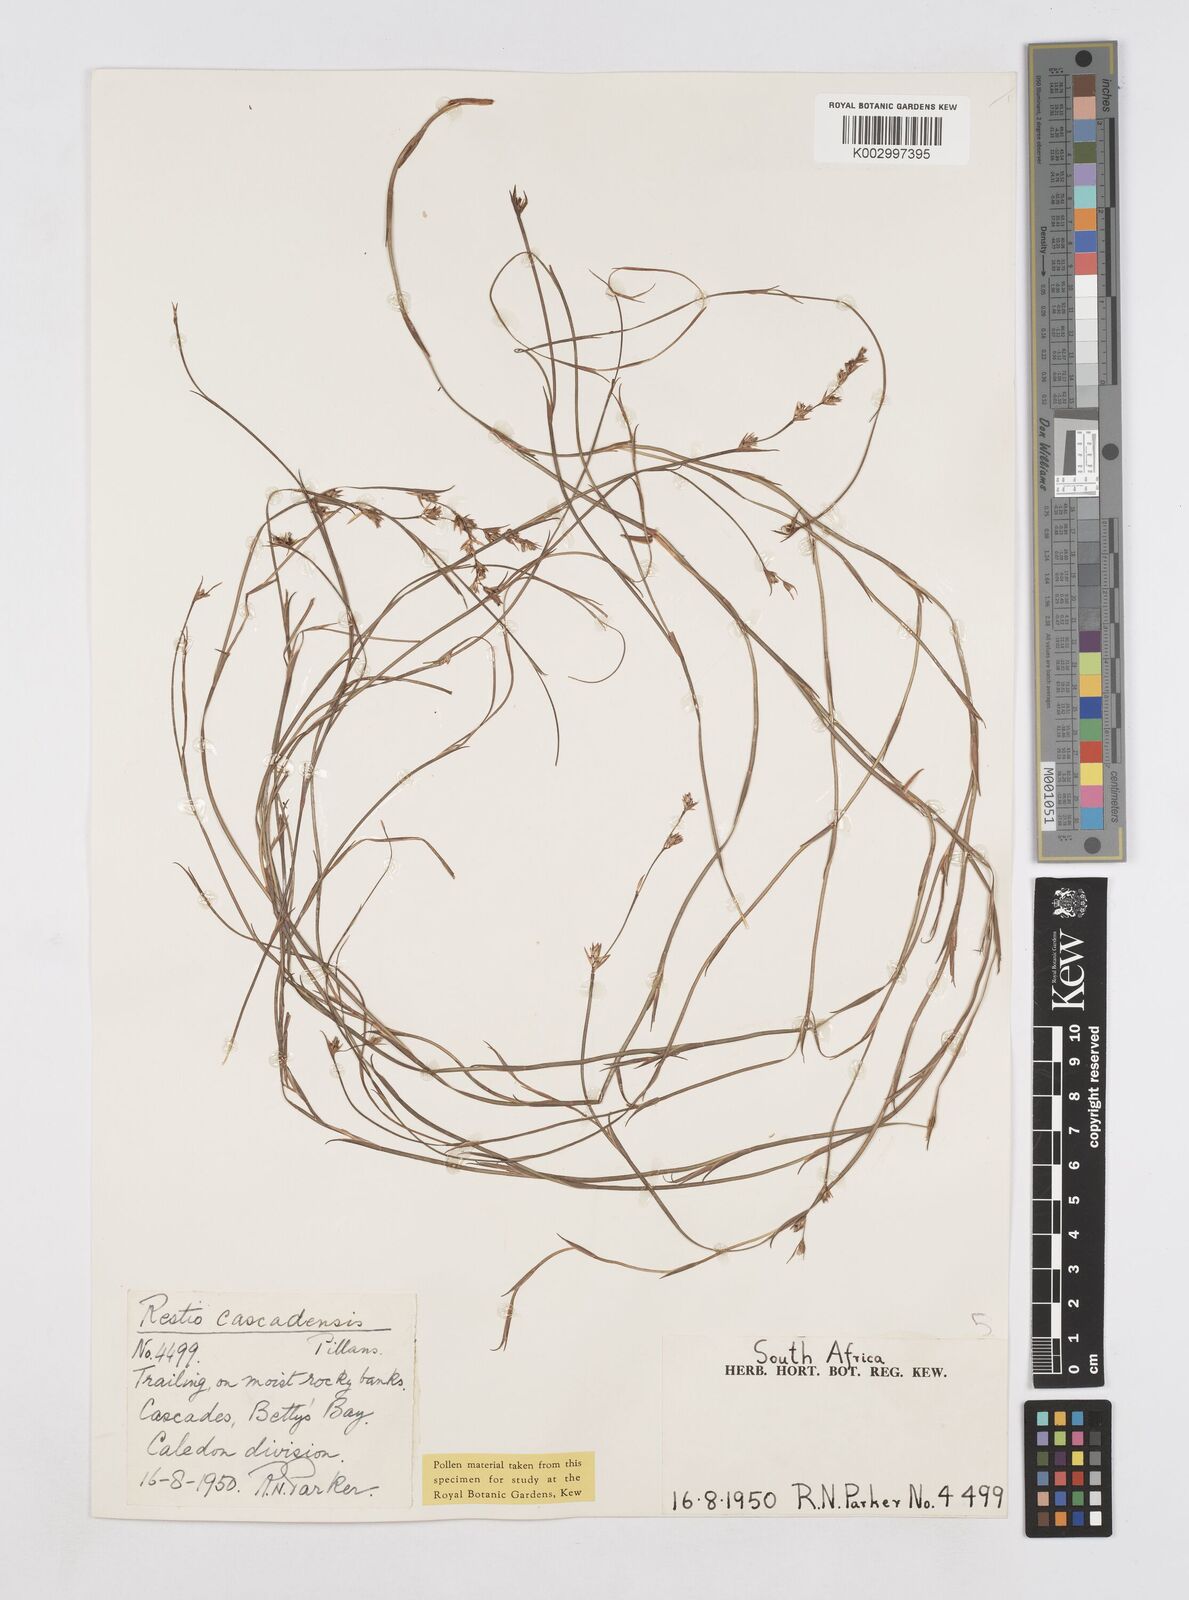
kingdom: Plantae
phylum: Tracheophyta
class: Liliopsida
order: Poales
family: Restionaceae
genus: Platycaulos
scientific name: Platycaulos cascadensis
